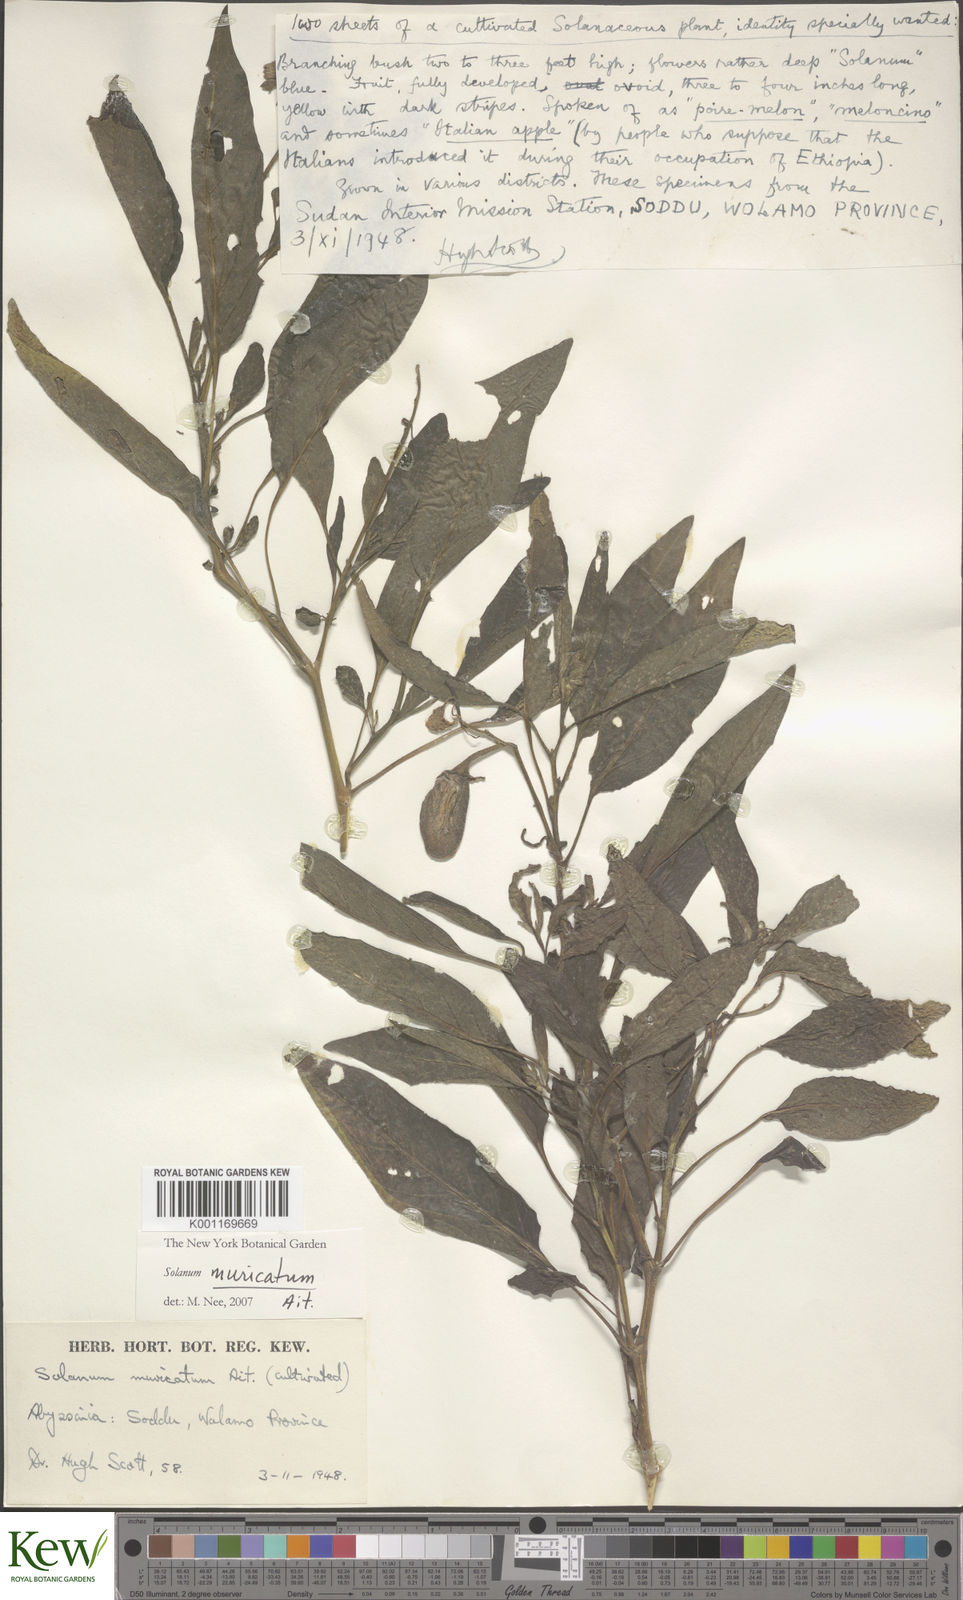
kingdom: Plantae
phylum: Tracheophyta
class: Magnoliopsida
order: Solanales
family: Solanaceae
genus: Solanum
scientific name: Solanum muricatum
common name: Peruvian pepino
